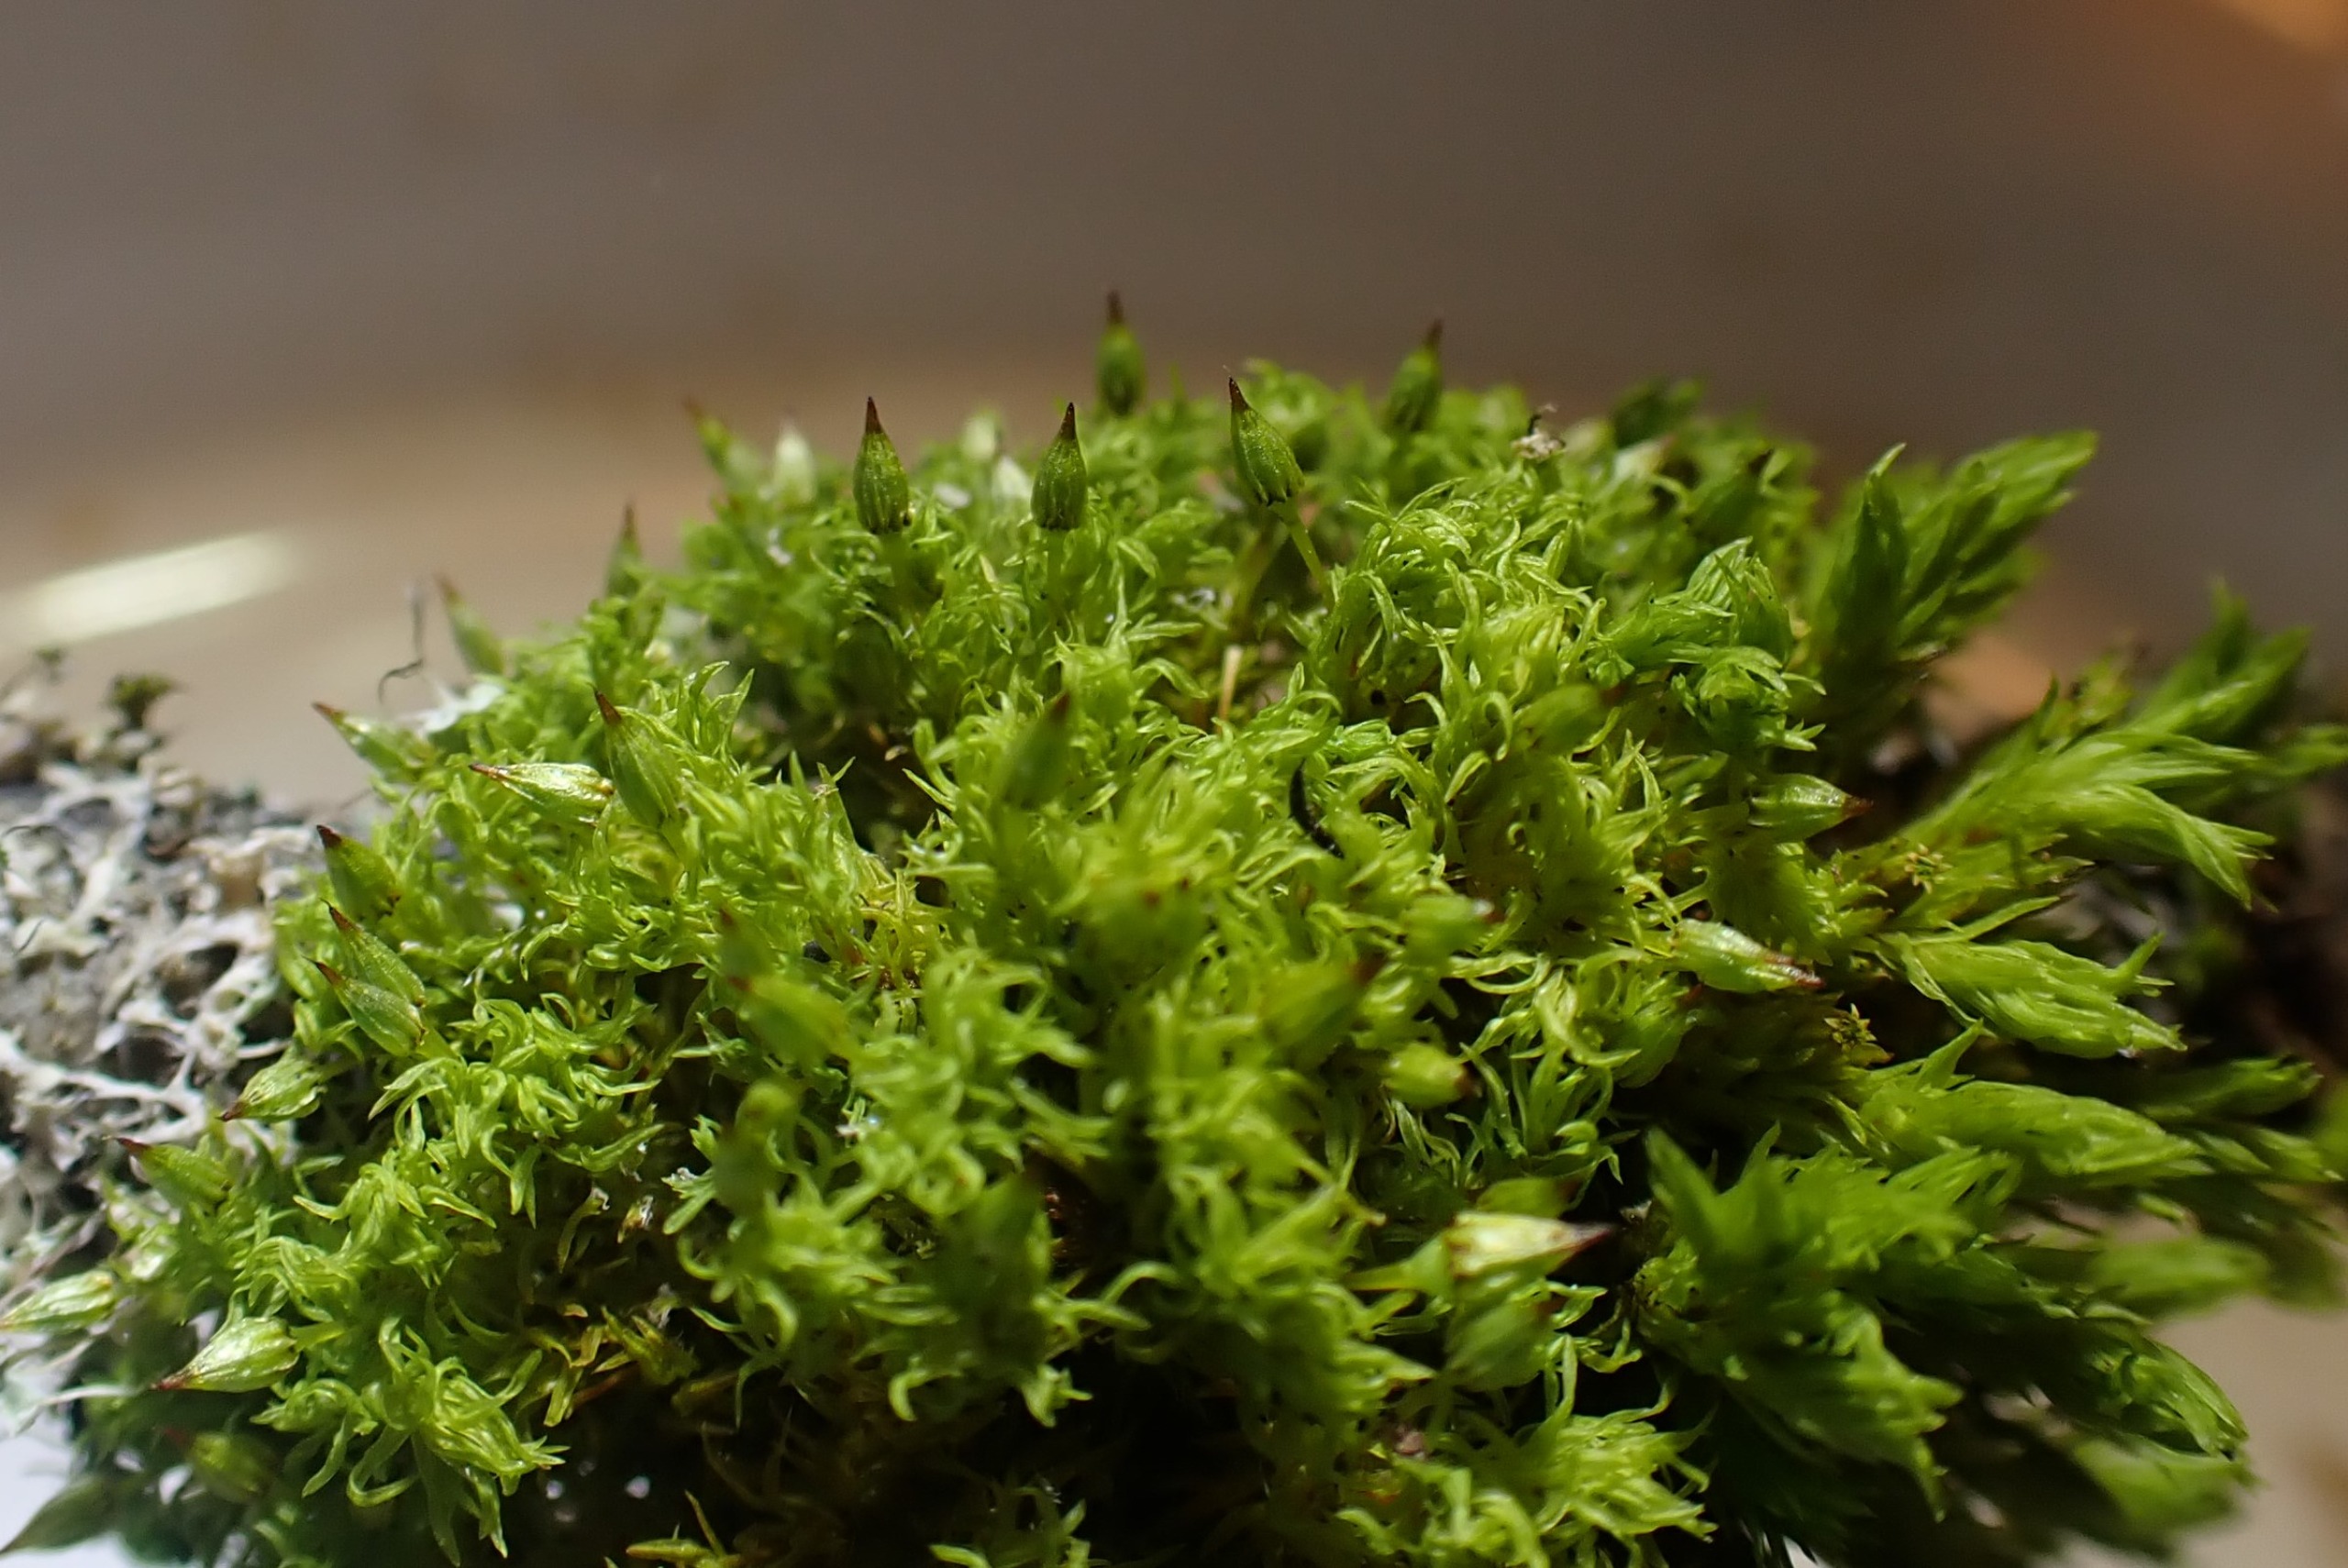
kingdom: Plantae
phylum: Bryophyta
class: Bryopsida
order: Orthotrichales
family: Orthotrichaceae
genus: Orthotrichum
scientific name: Orthotrichum pulchellum
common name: Smuk furehætte
